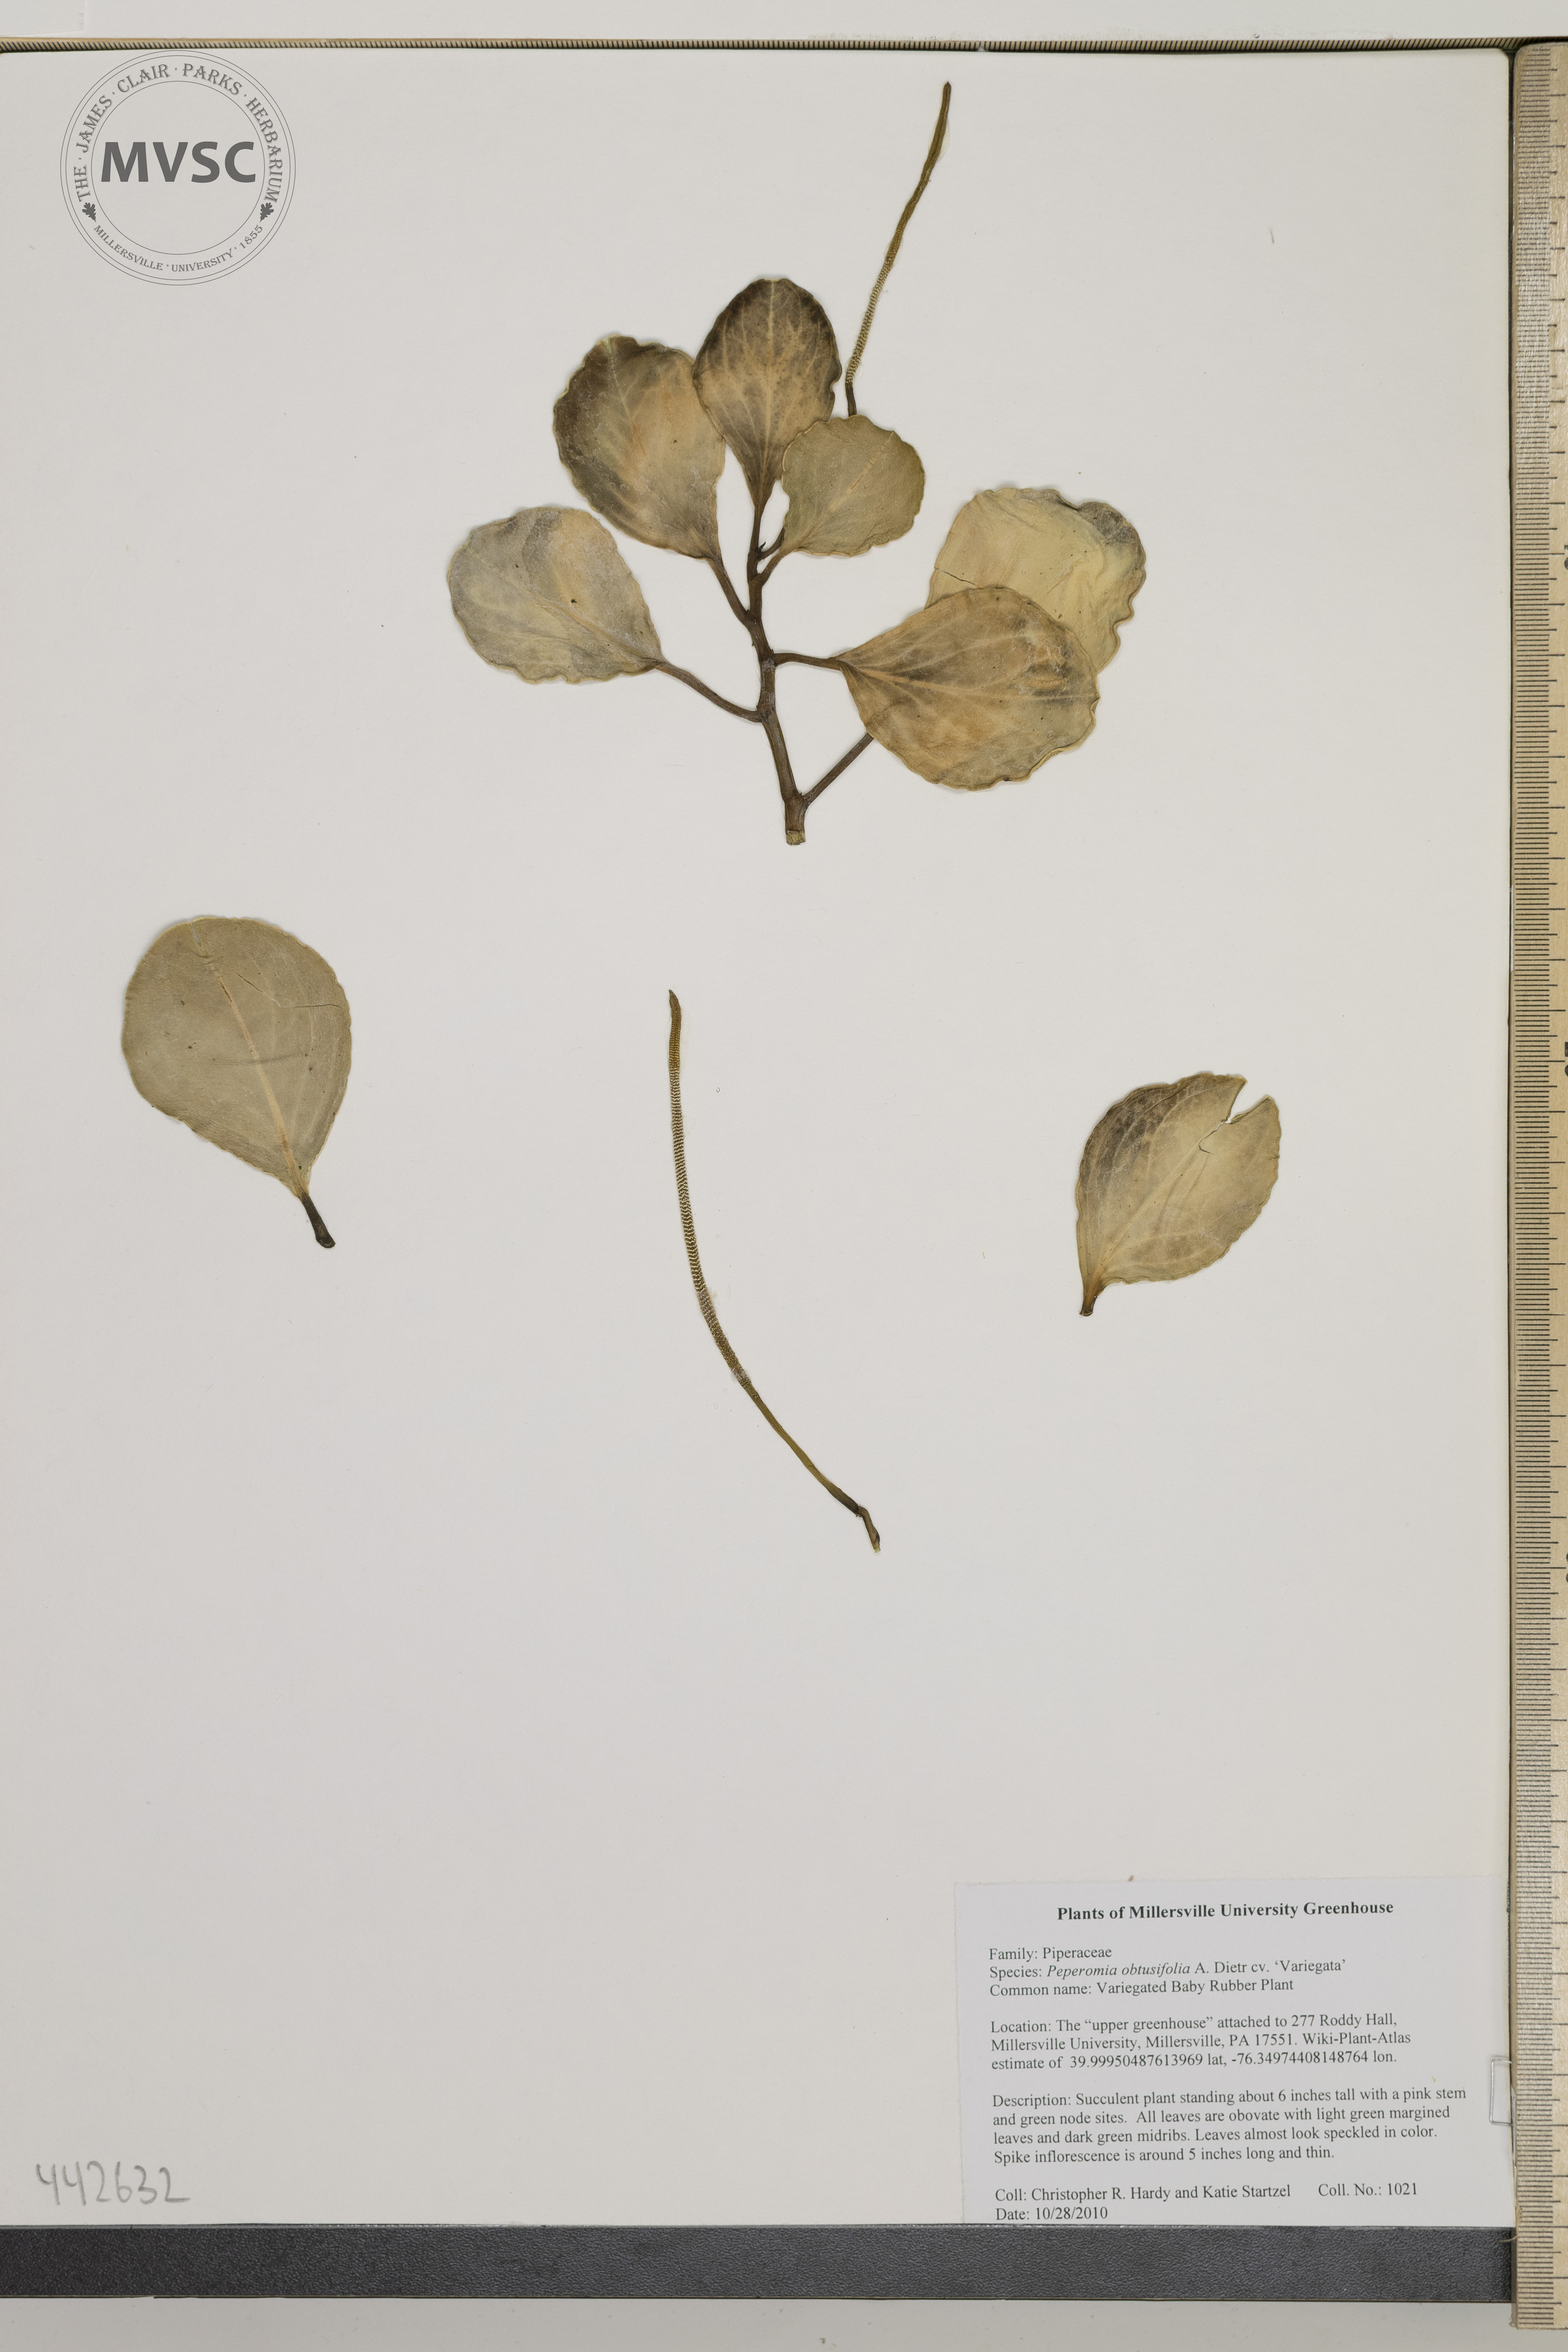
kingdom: Plantae
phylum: Tracheophyta
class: Magnoliopsida
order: Piperales
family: Piperaceae
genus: Peperomia
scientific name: Peperomia obtusifolia
